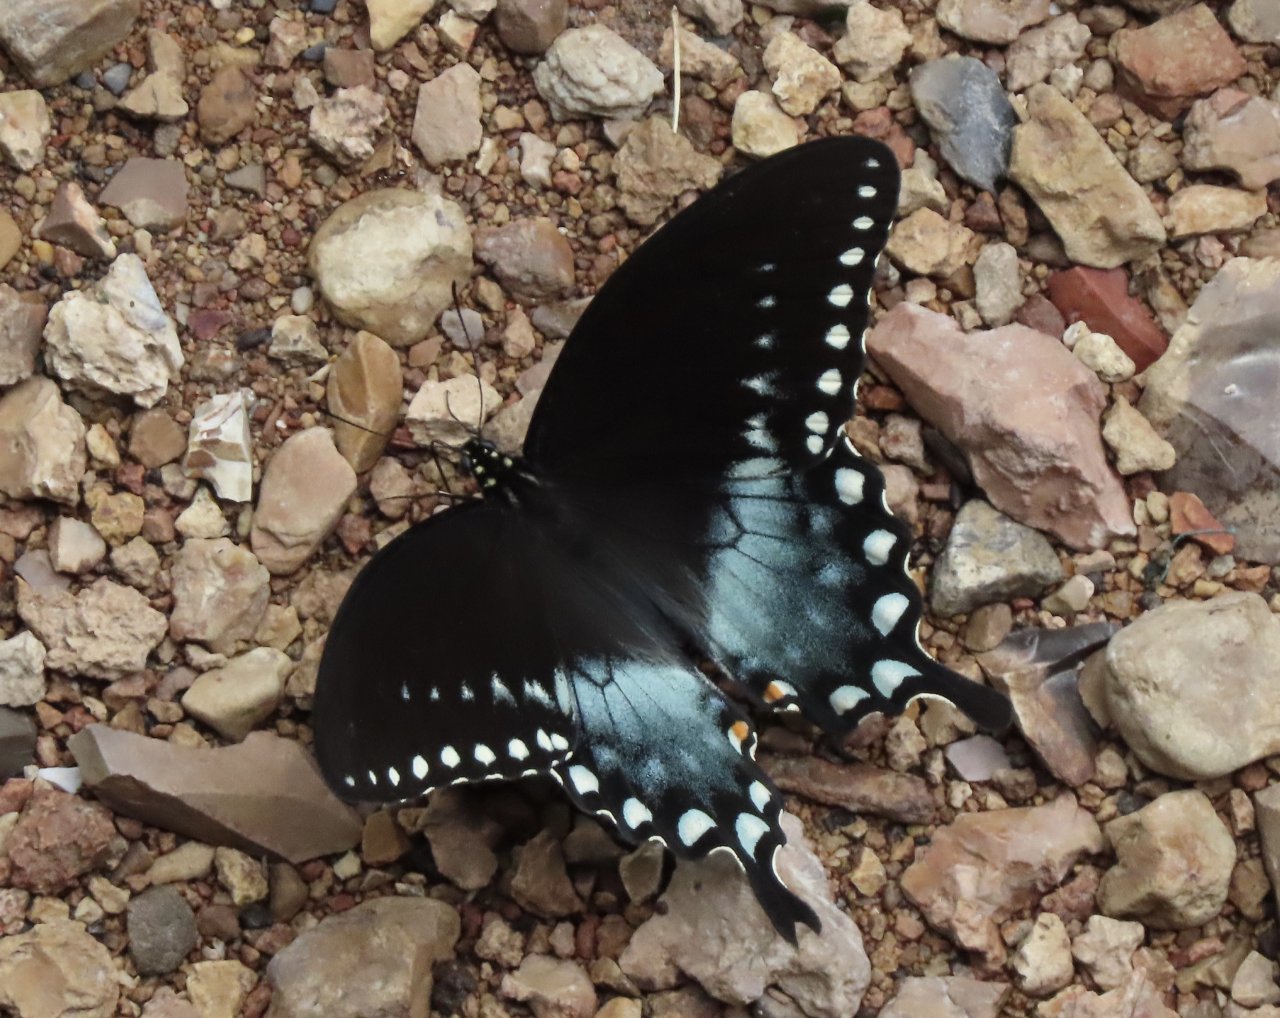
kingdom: Animalia
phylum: Arthropoda
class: Insecta
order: Lepidoptera
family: Papilionidae
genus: Pterourus
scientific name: Pterourus troilus
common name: Spicebush Swallowtail
